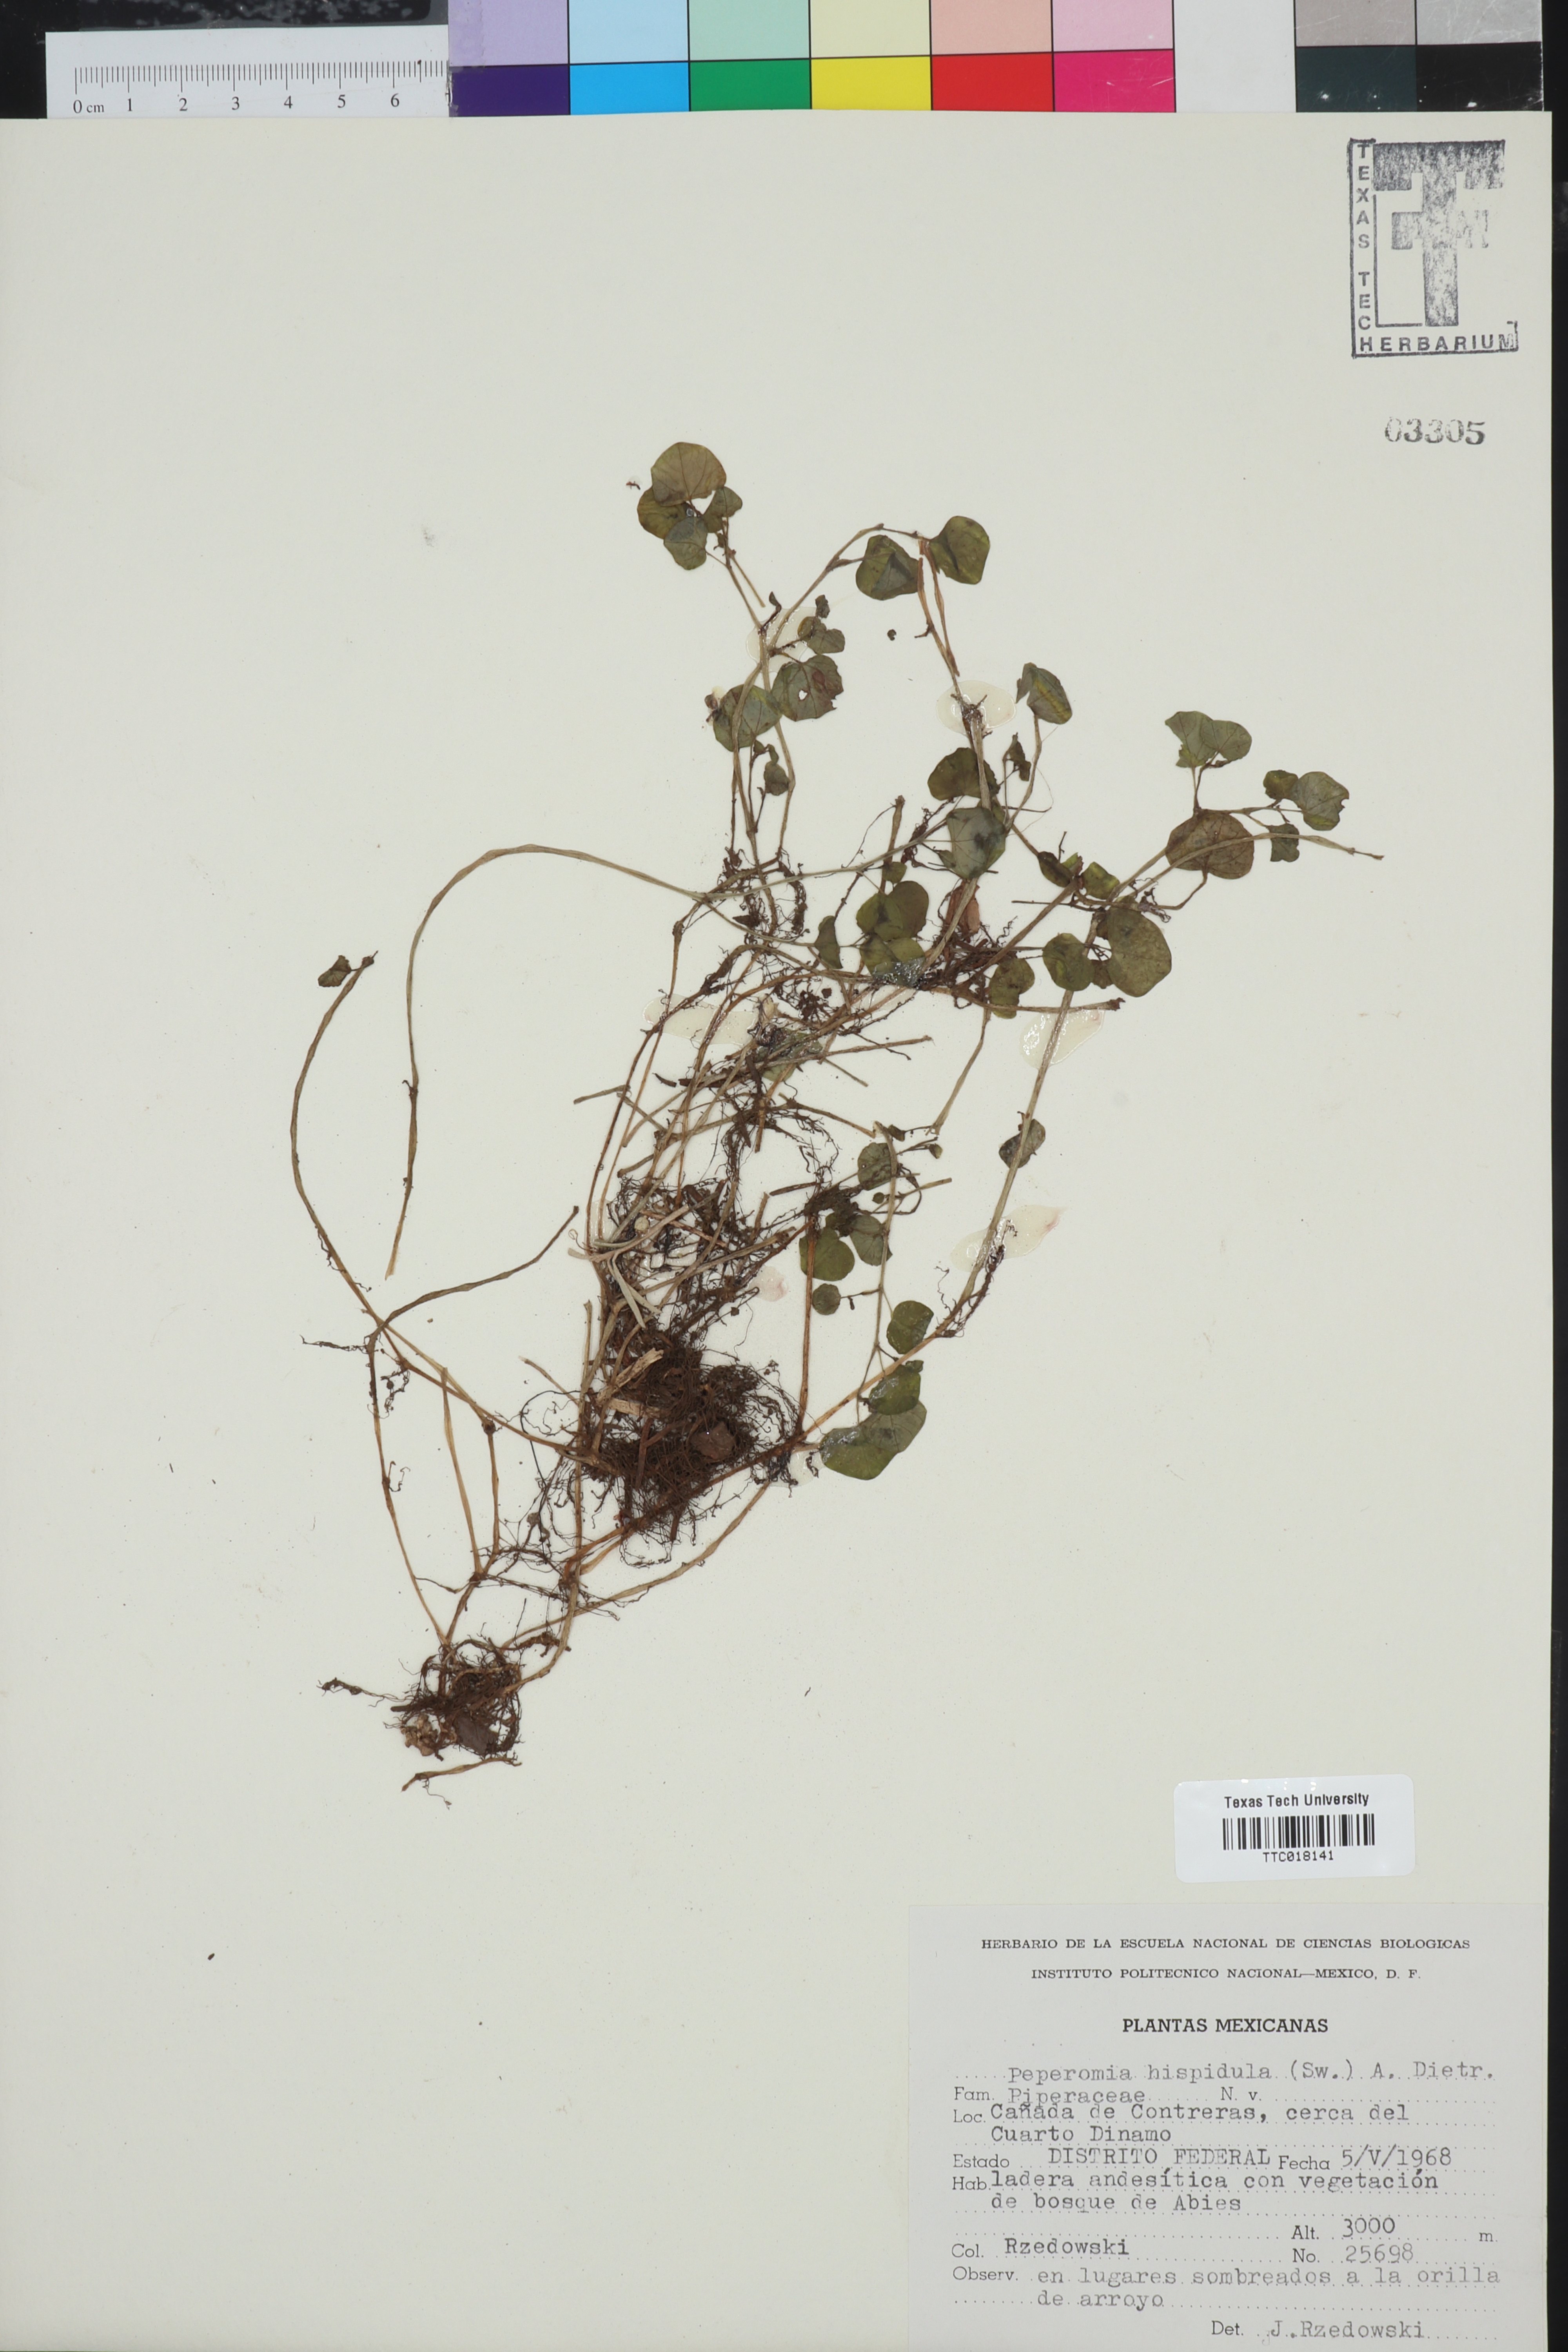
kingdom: Plantae
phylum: Tracheophyta
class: Magnoliopsida
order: Piperales
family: Piperaceae
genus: Peperomia
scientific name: Peperomia hispidula
